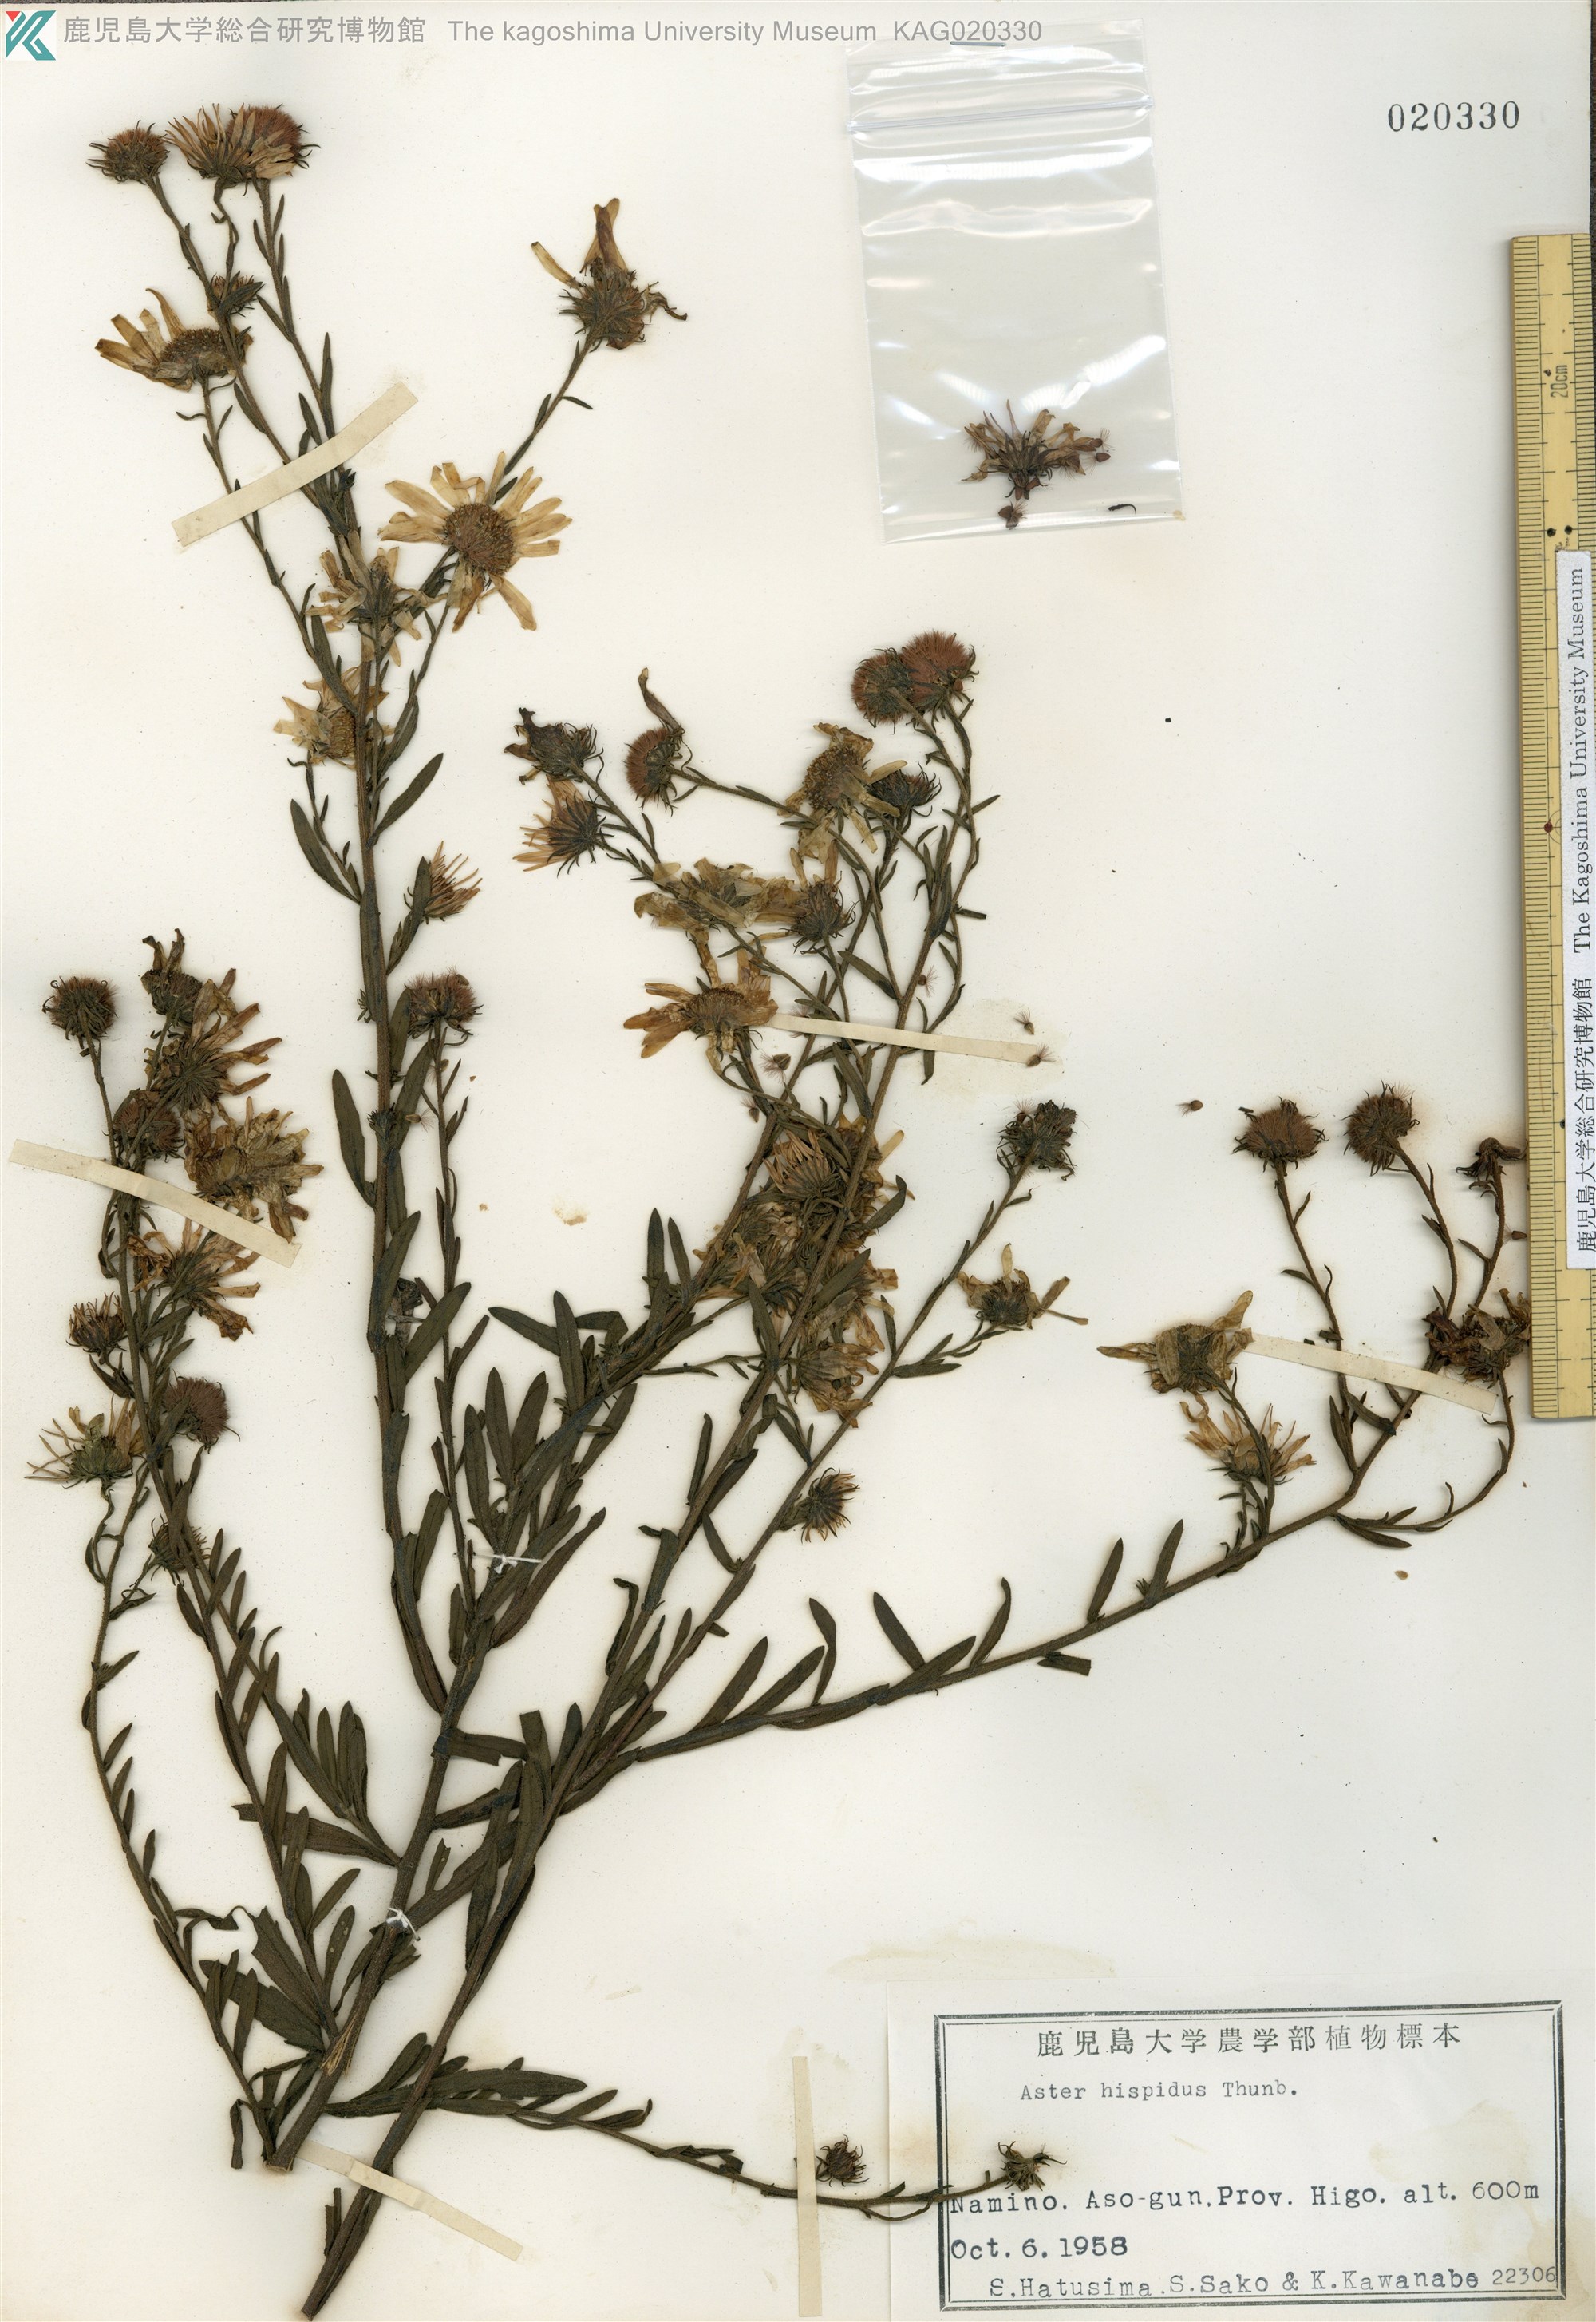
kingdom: Plantae
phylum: Tracheophyta
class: Magnoliopsida
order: Asterales
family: Asteraceae
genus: Heteropappus
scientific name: Heteropappus hispidus
